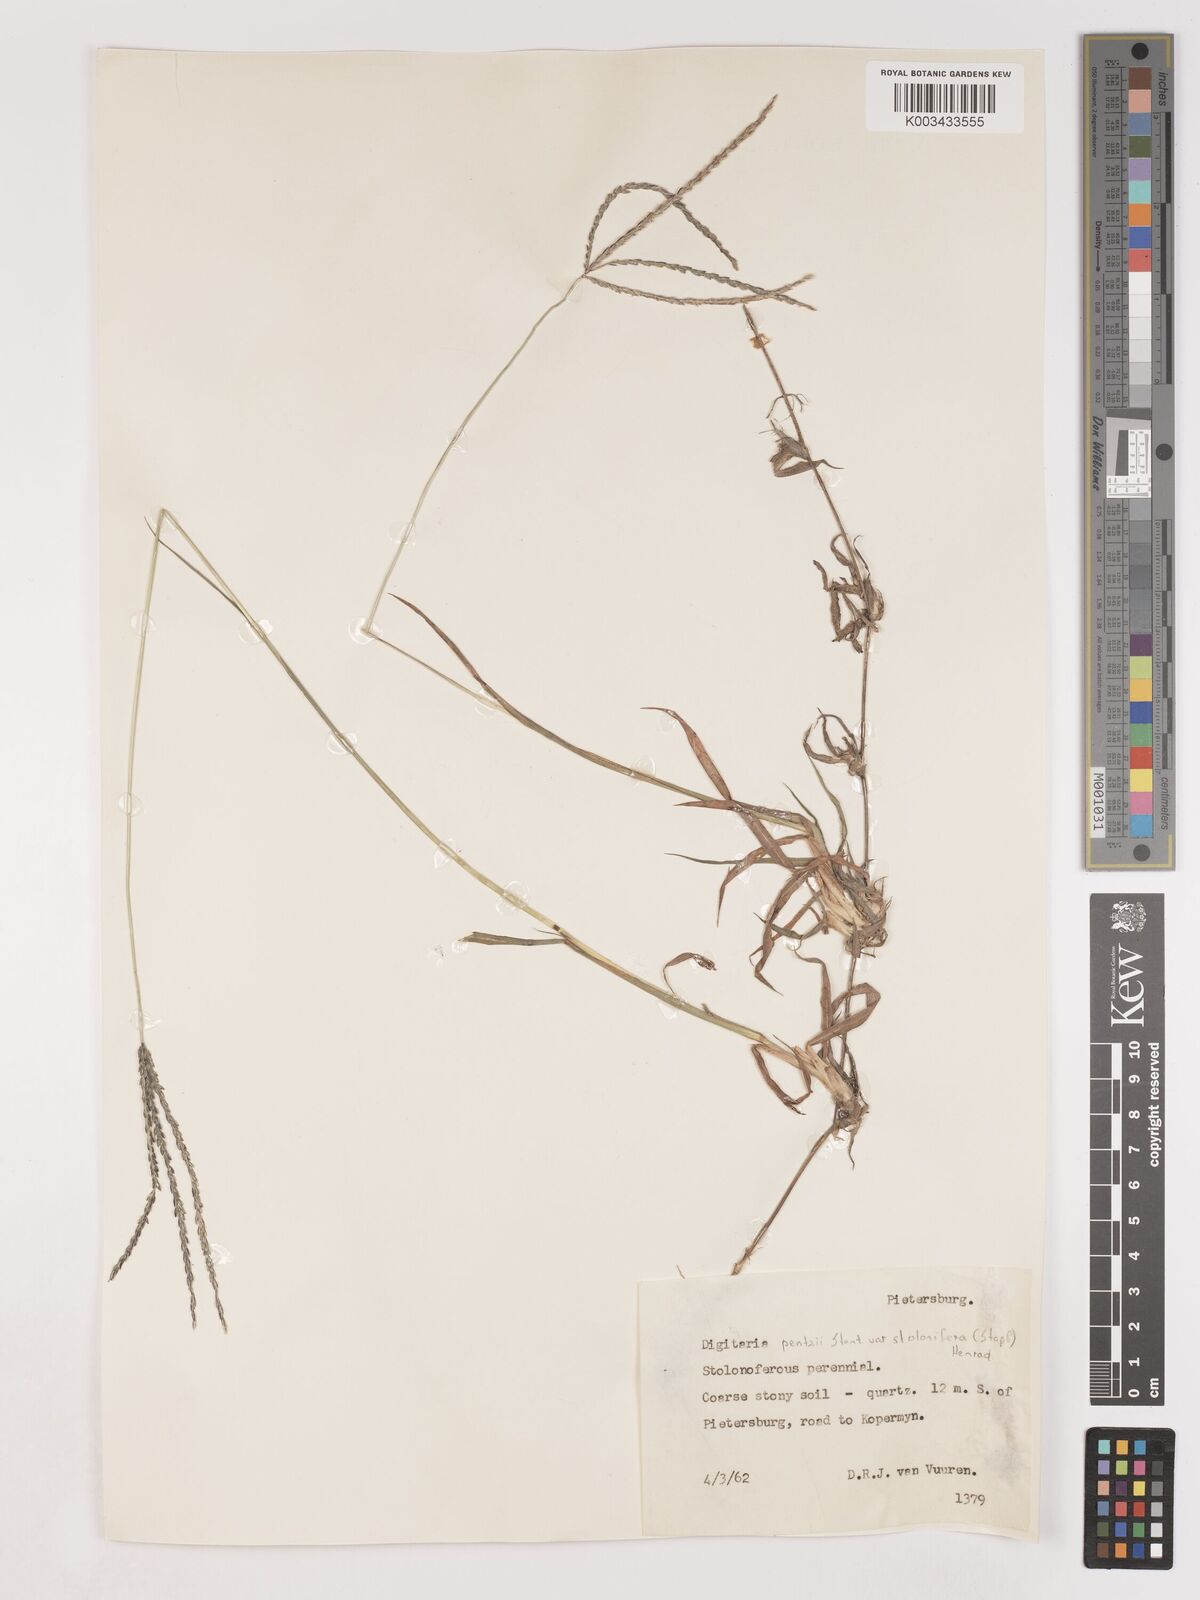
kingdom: Plantae
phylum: Tracheophyta
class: Liliopsida
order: Poales
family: Poaceae
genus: Digitaria
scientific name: Digitaria eriantha
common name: Digitgrass
